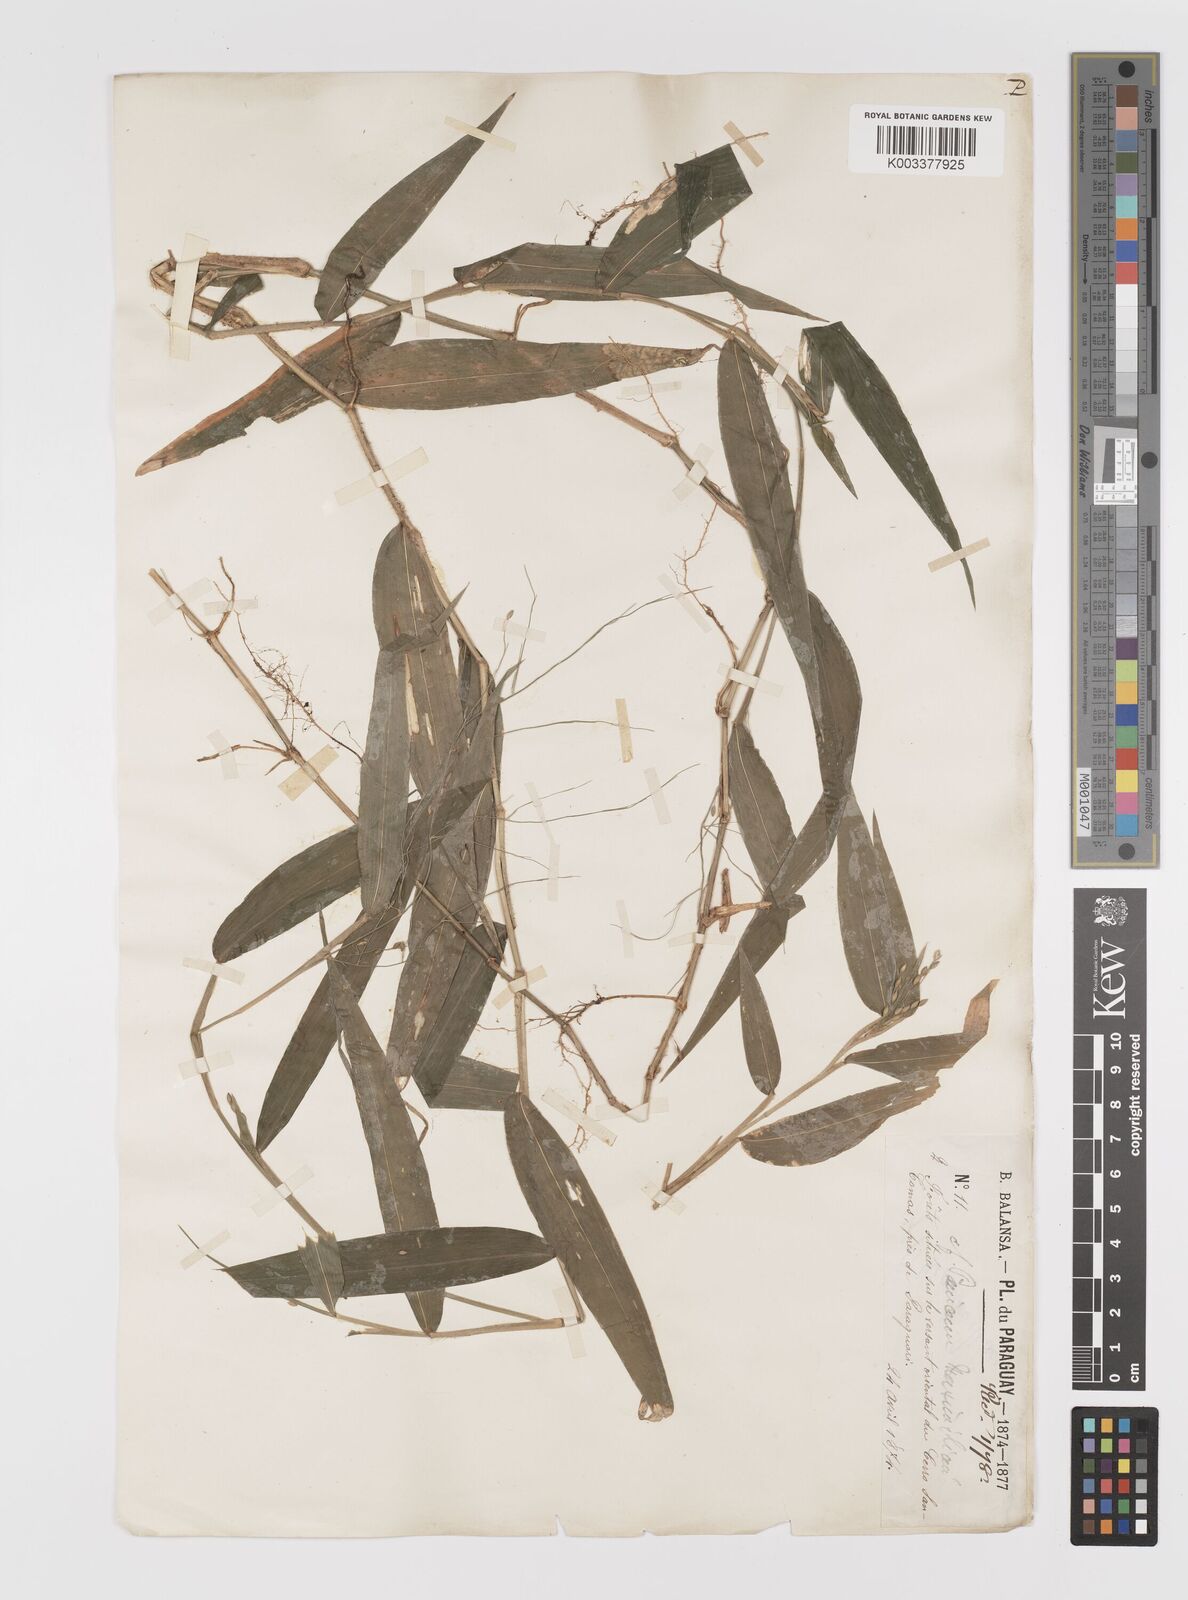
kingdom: Plantae
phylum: Tracheophyta
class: Liliopsida
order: Poales
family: Poaceae
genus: Parodiophyllochloa
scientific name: Parodiophyllochloa ovulifera
